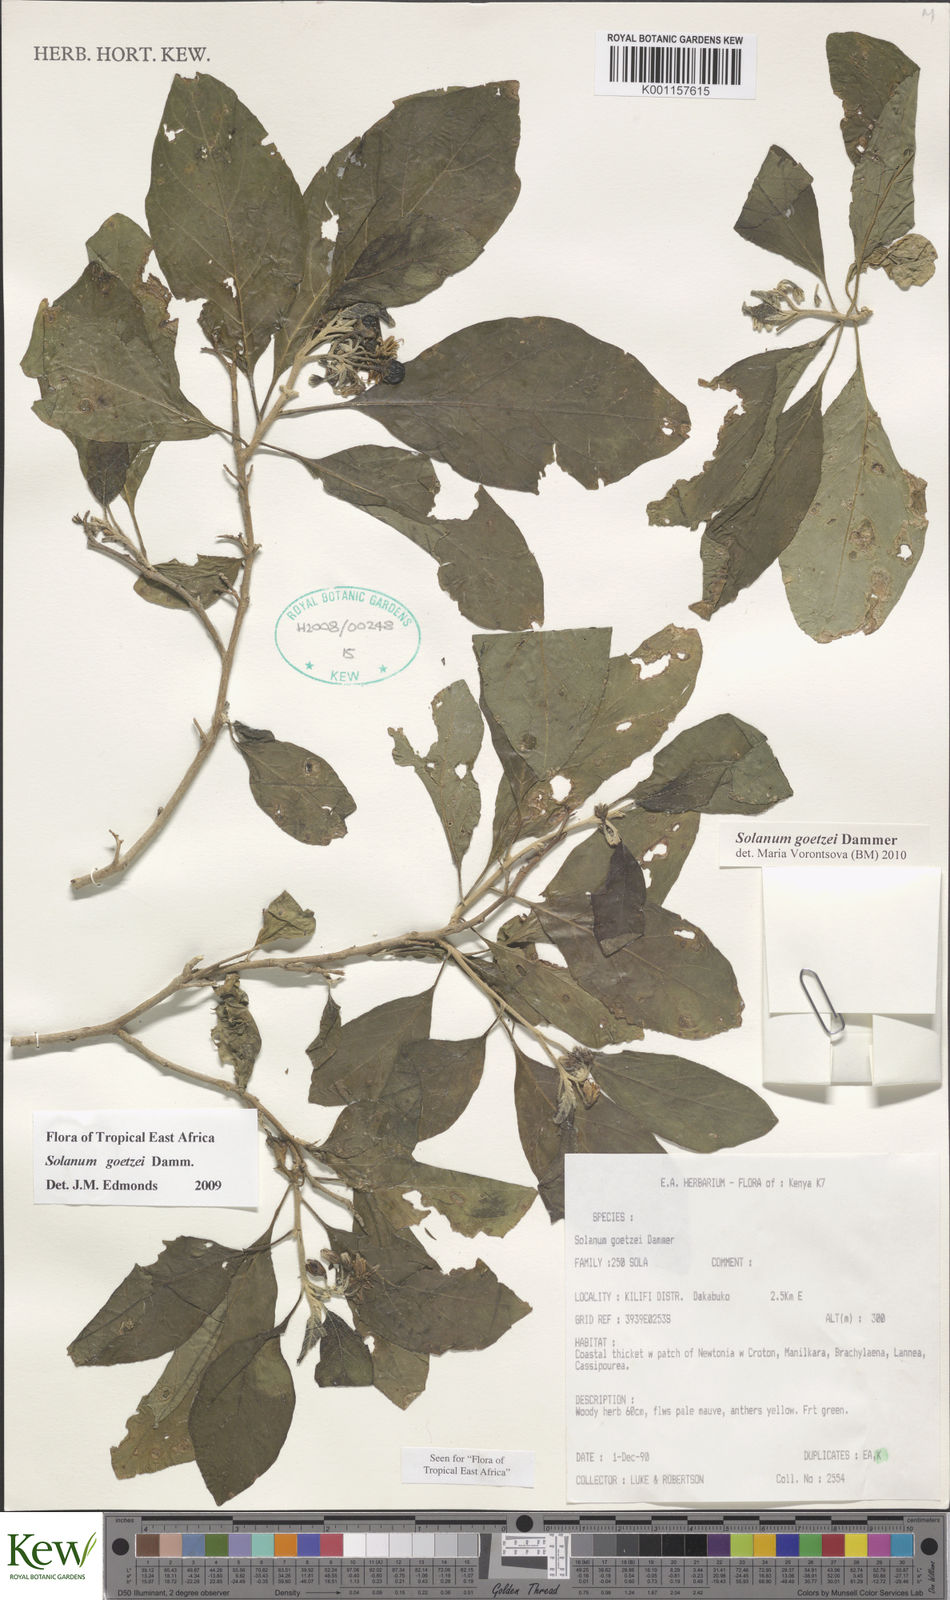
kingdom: Plantae
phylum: Tracheophyta
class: Magnoliopsida
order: Solanales
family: Solanaceae
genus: Solanum
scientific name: Solanum goetzei
